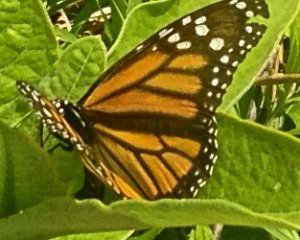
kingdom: Animalia
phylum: Arthropoda
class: Insecta
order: Lepidoptera
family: Nymphalidae
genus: Danaus
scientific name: Danaus plexippus
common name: Monarch
